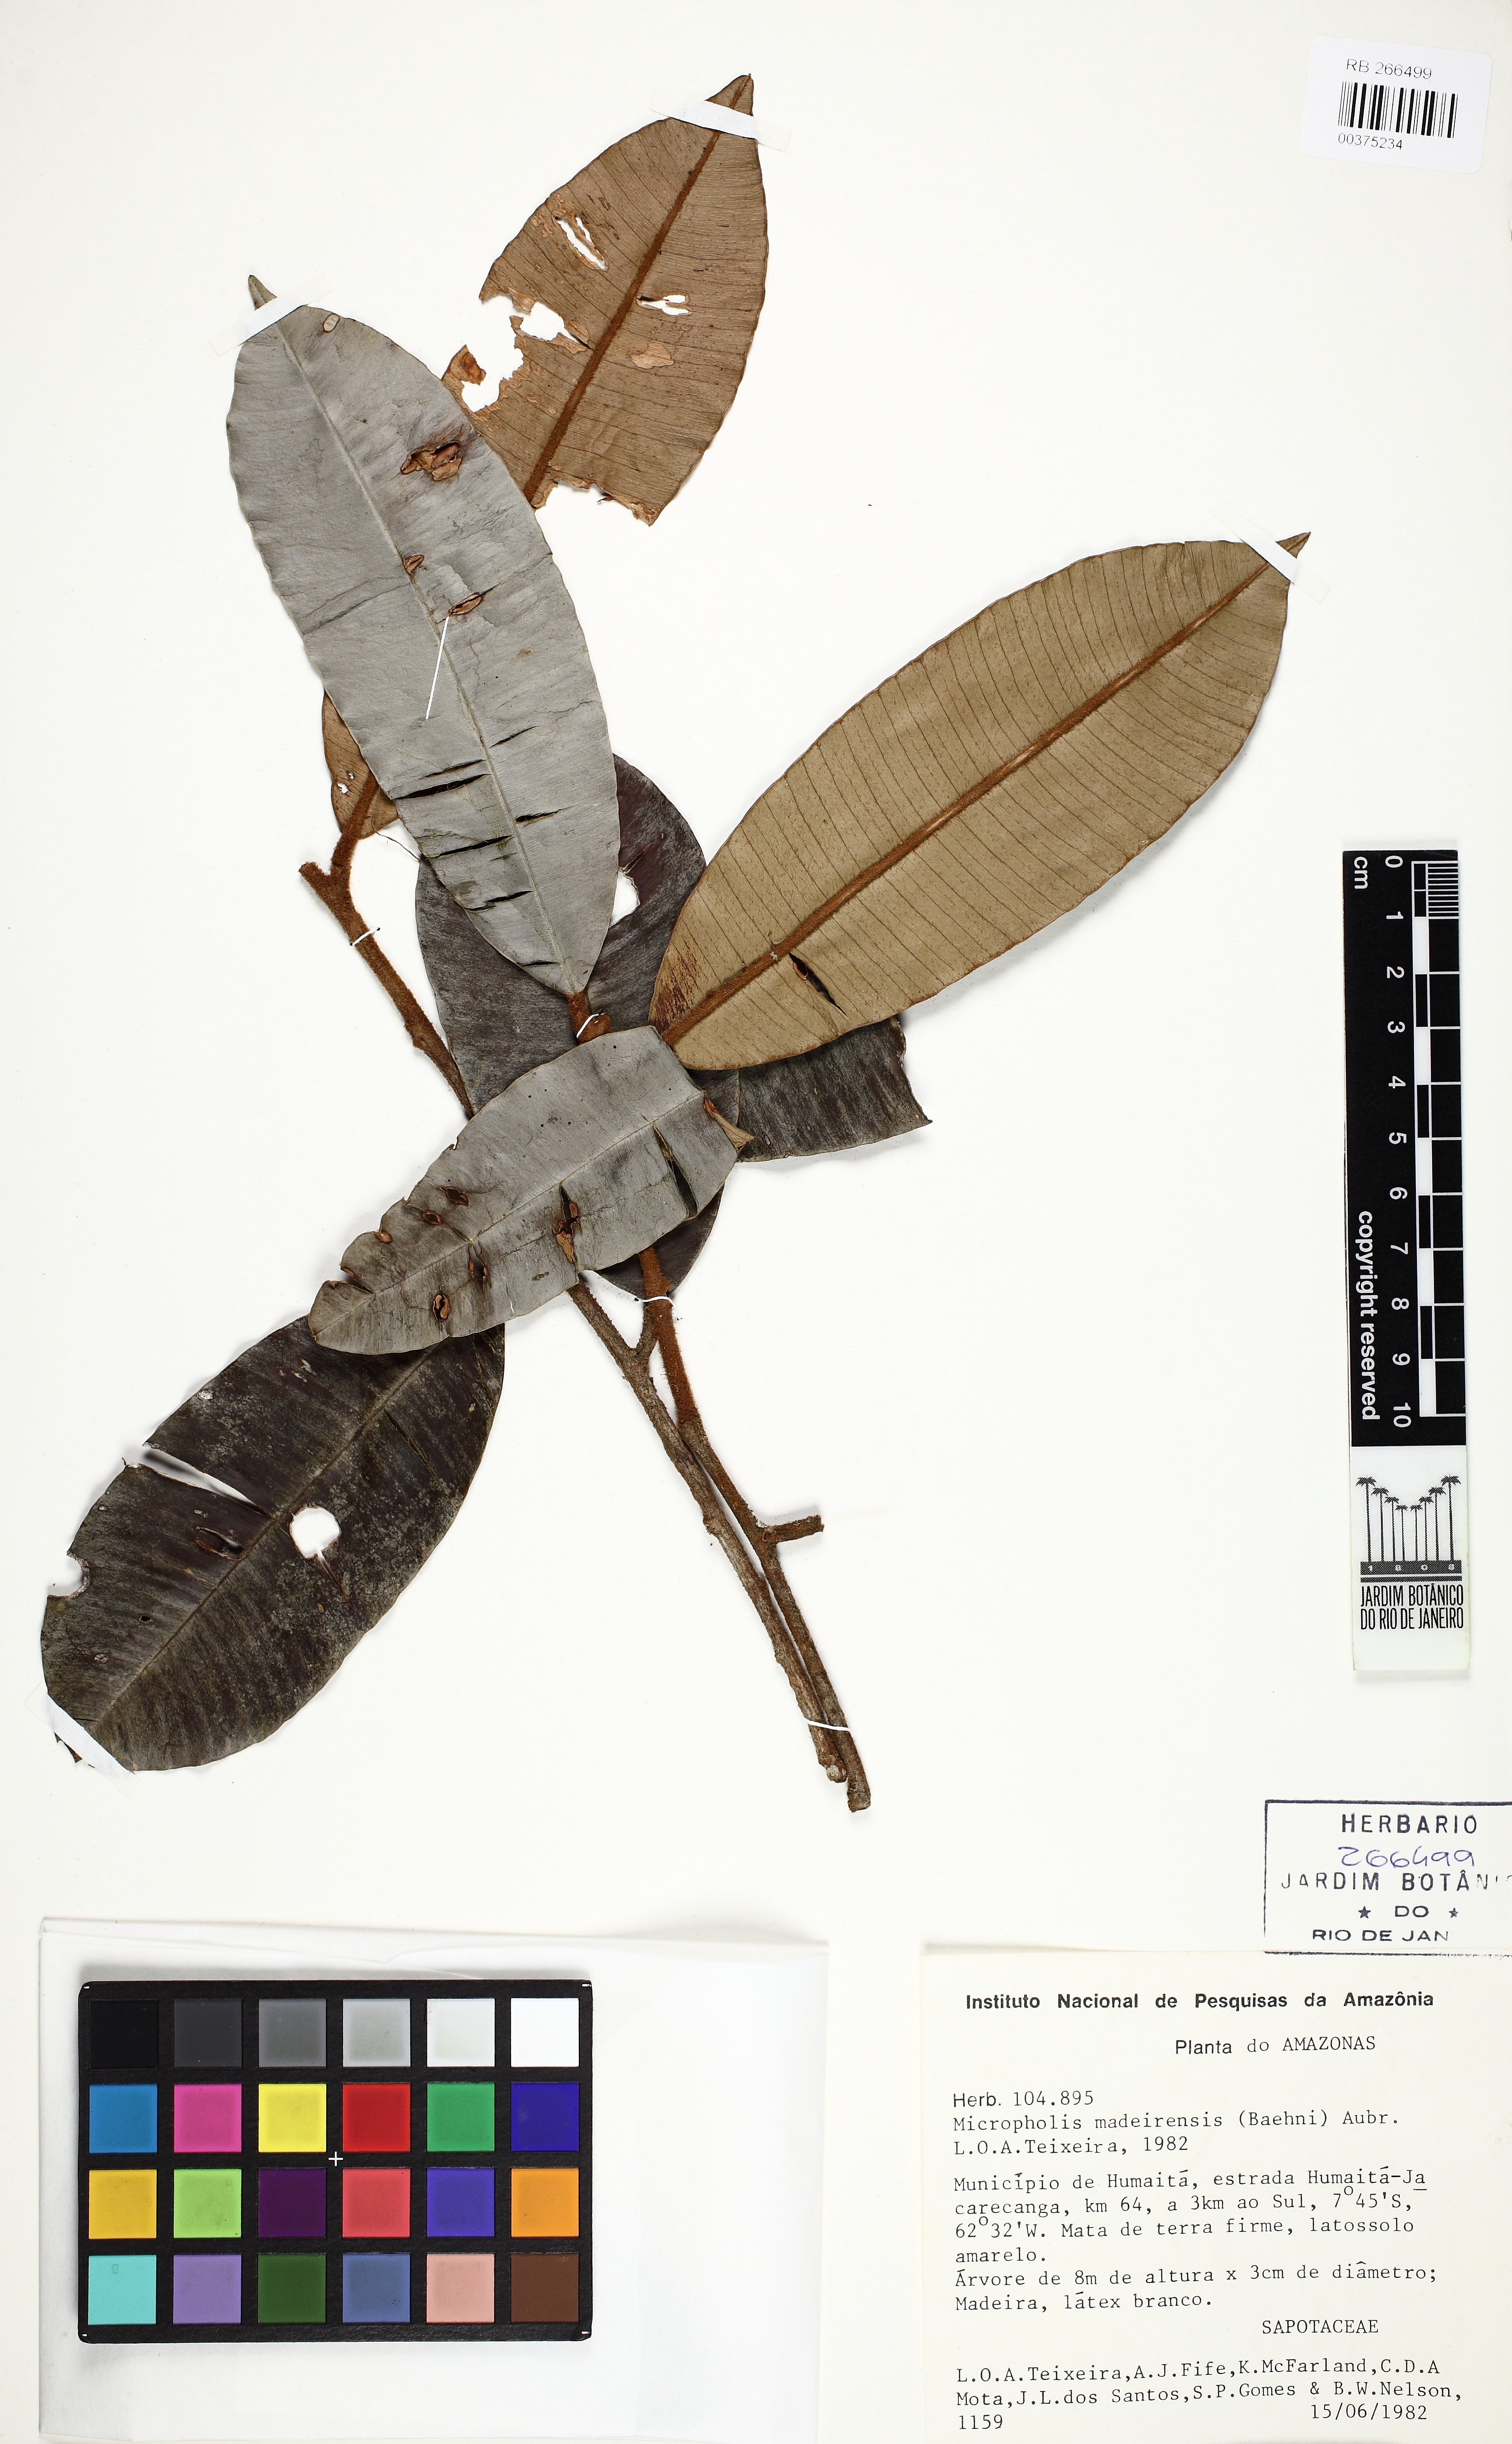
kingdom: Plantae
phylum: Tracheophyta
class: Magnoliopsida
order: Ericales
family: Sapotaceae
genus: Micropholis
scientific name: Micropholis madeirensis
